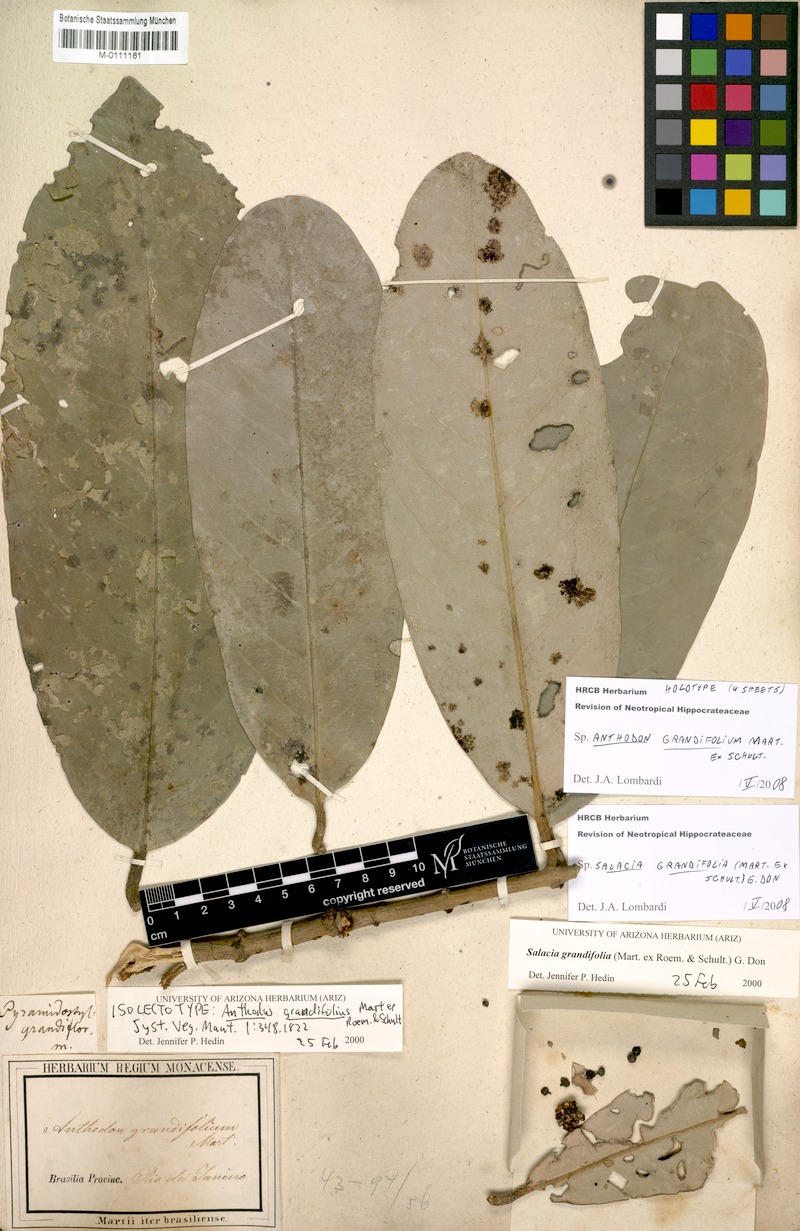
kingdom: Plantae
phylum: Tracheophyta
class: Magnoliopsida
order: Celastrales
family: Celastraceae
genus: Salacia
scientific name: Salacia grandifolia
